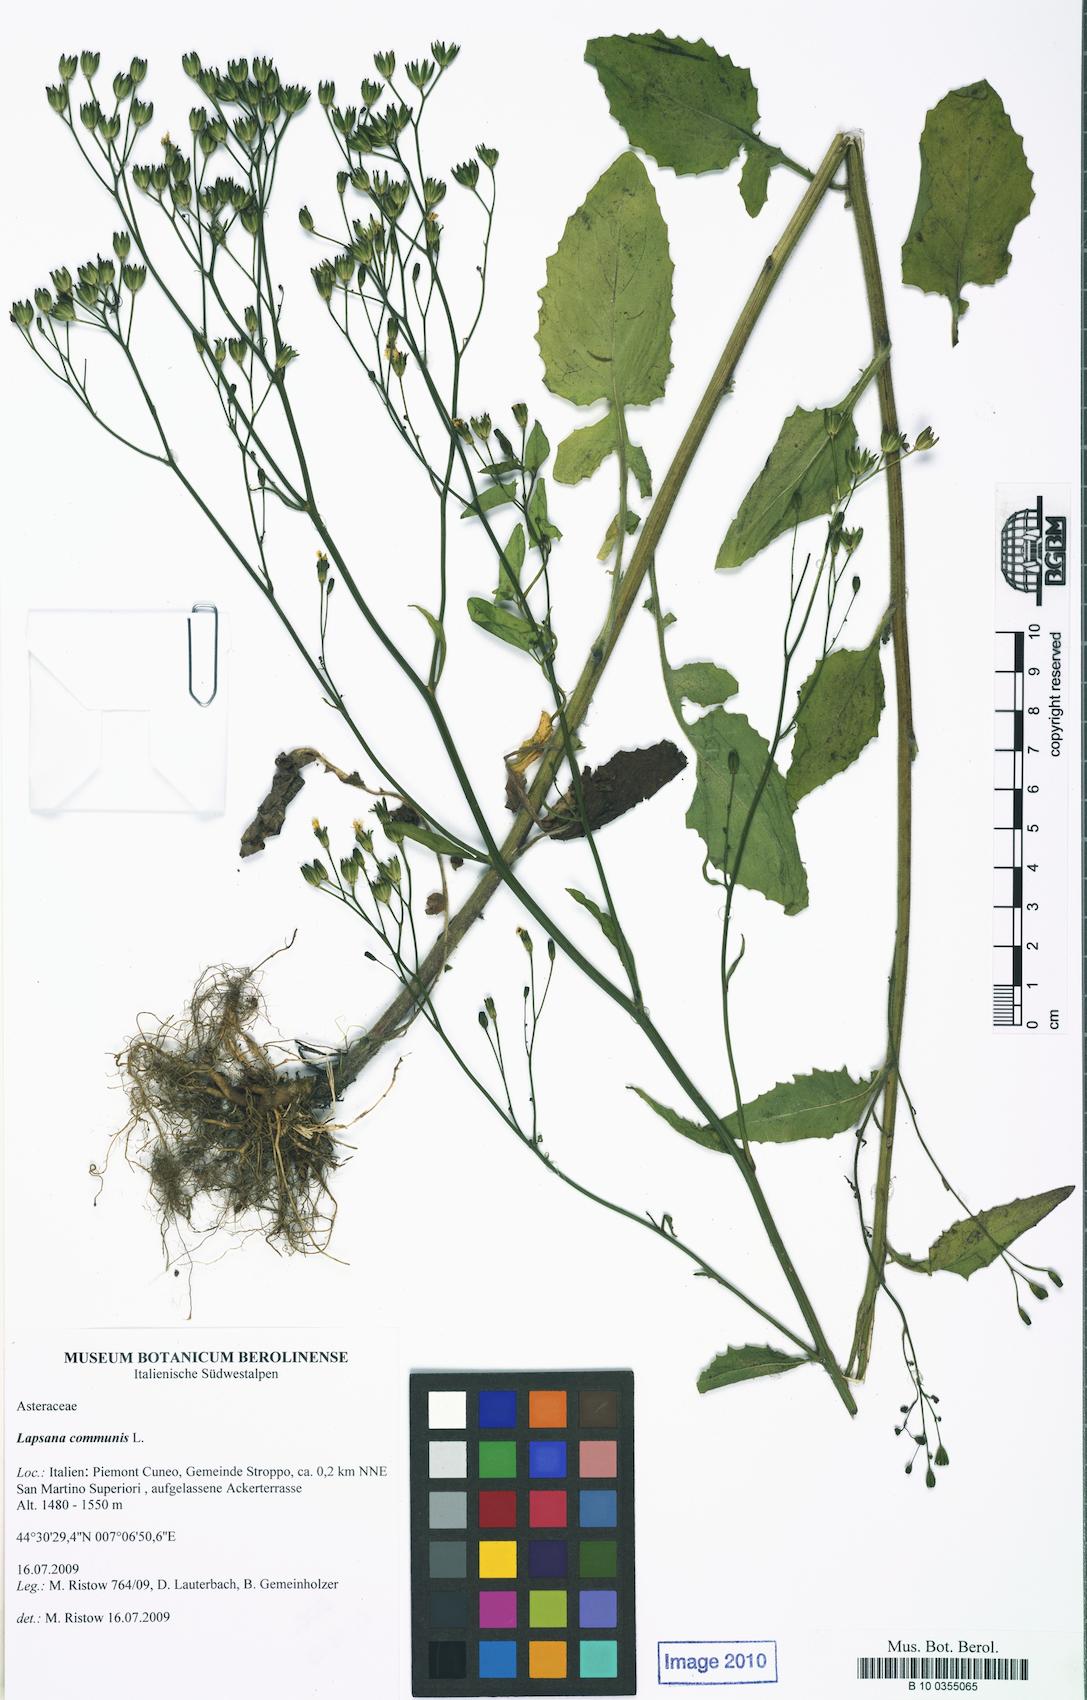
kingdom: Plantae
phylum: Tracheophyta
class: Magnoliopsida
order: Asterales
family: Asteraceae
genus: Lapsana
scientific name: Lapsana communis
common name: Nipplewort
